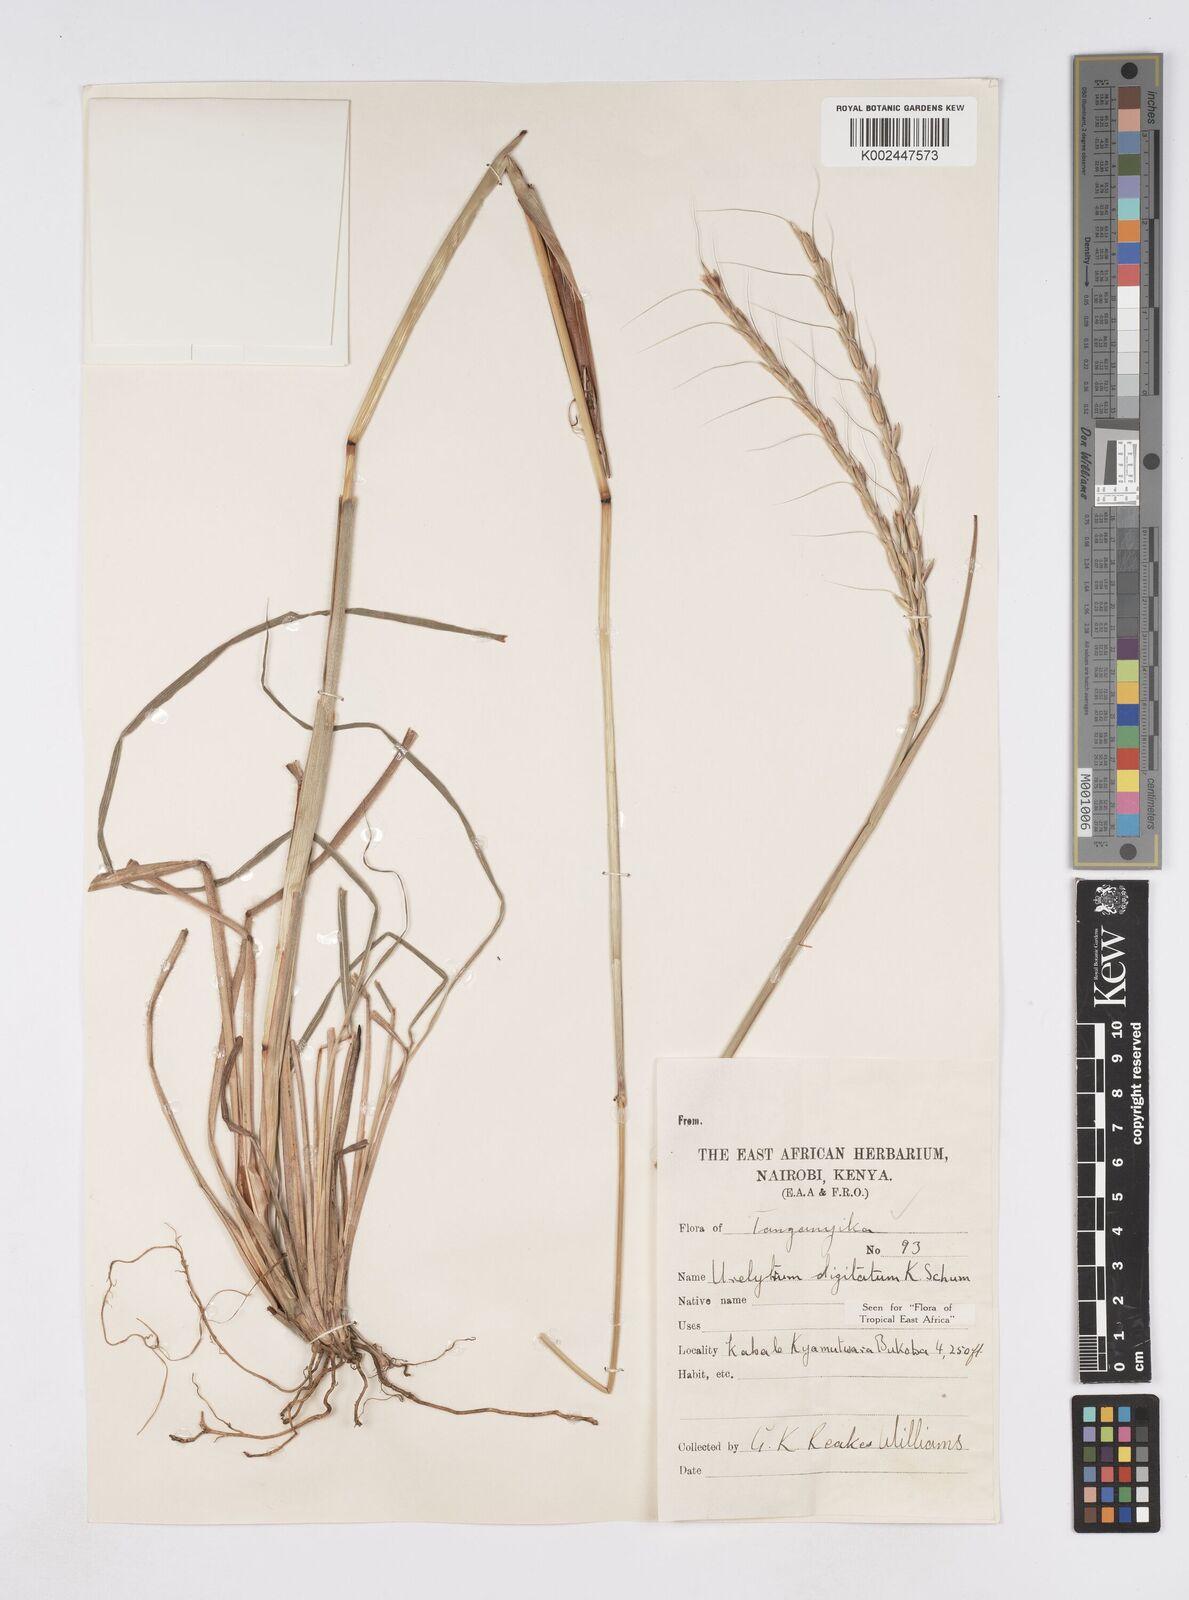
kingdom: Plantae
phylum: Tracheophyta
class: Liliopsida
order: Poales
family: Poaceae
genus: Urelytrum
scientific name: Urelytrum digitatum
